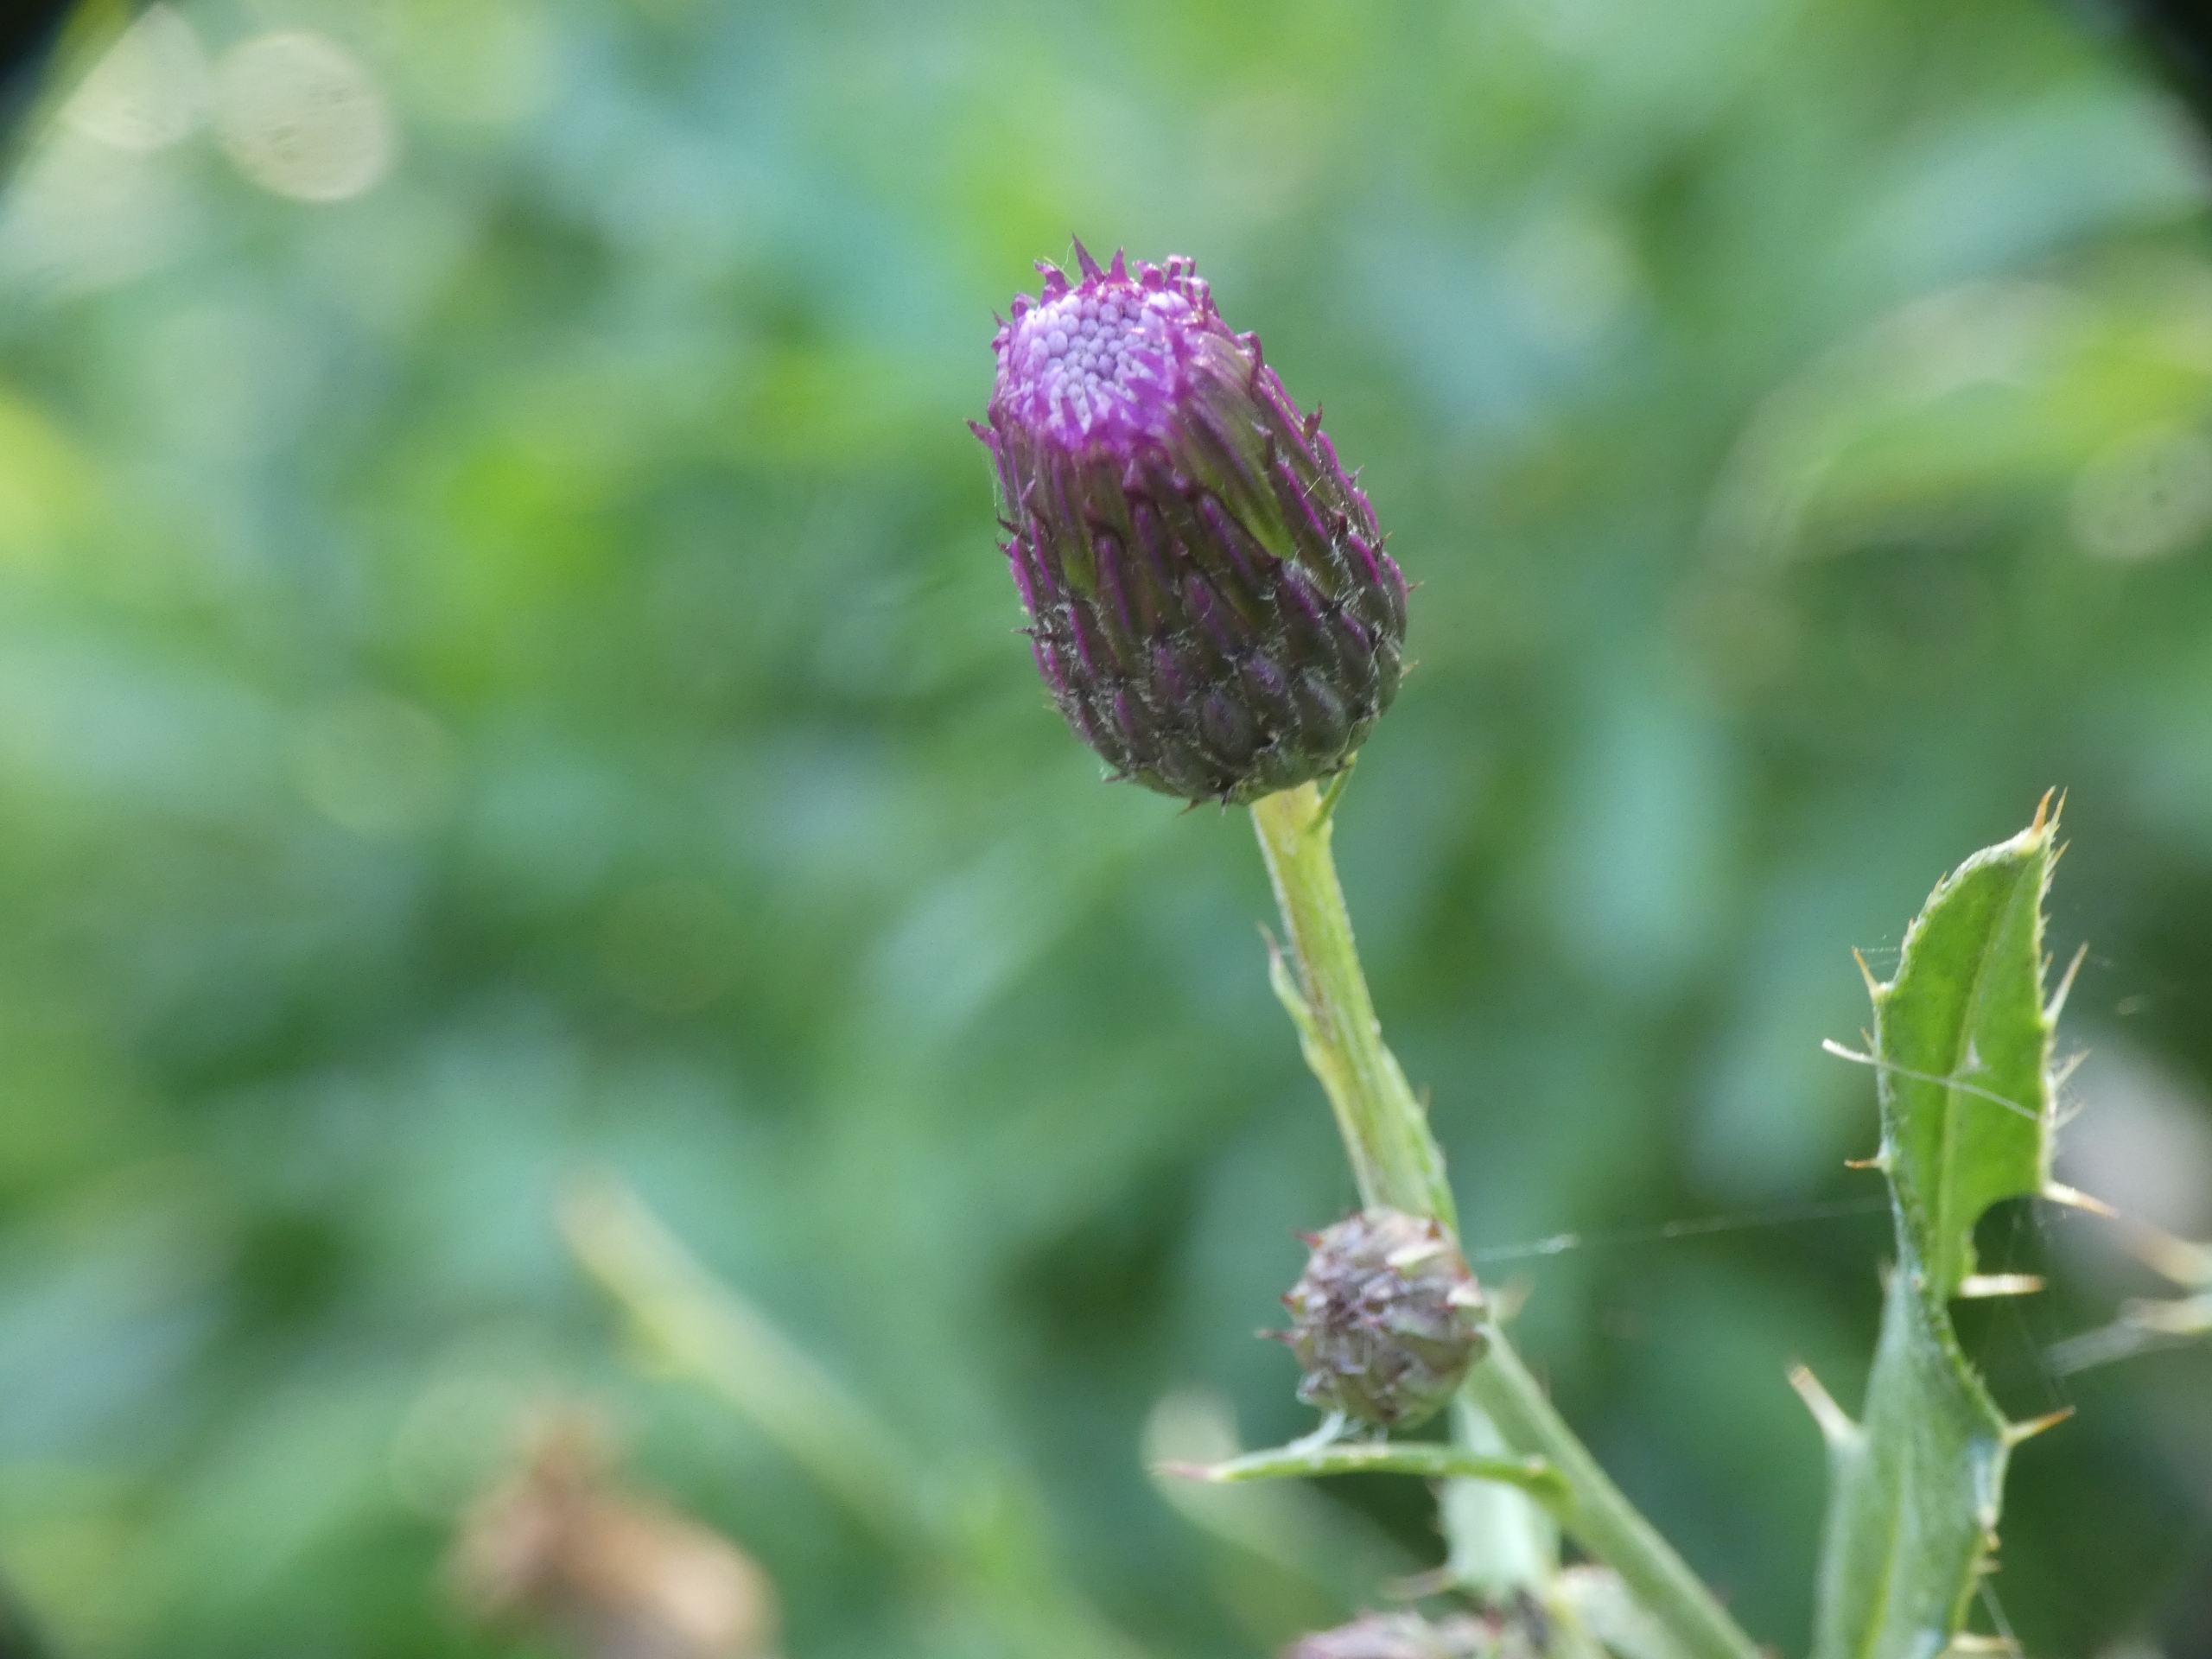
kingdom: Plantae
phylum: Tracheophyta
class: Magnoliopsida
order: Asterales
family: Asteraceae
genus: Cirsium
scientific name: Cirsium arvense
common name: Ager-tidsel
